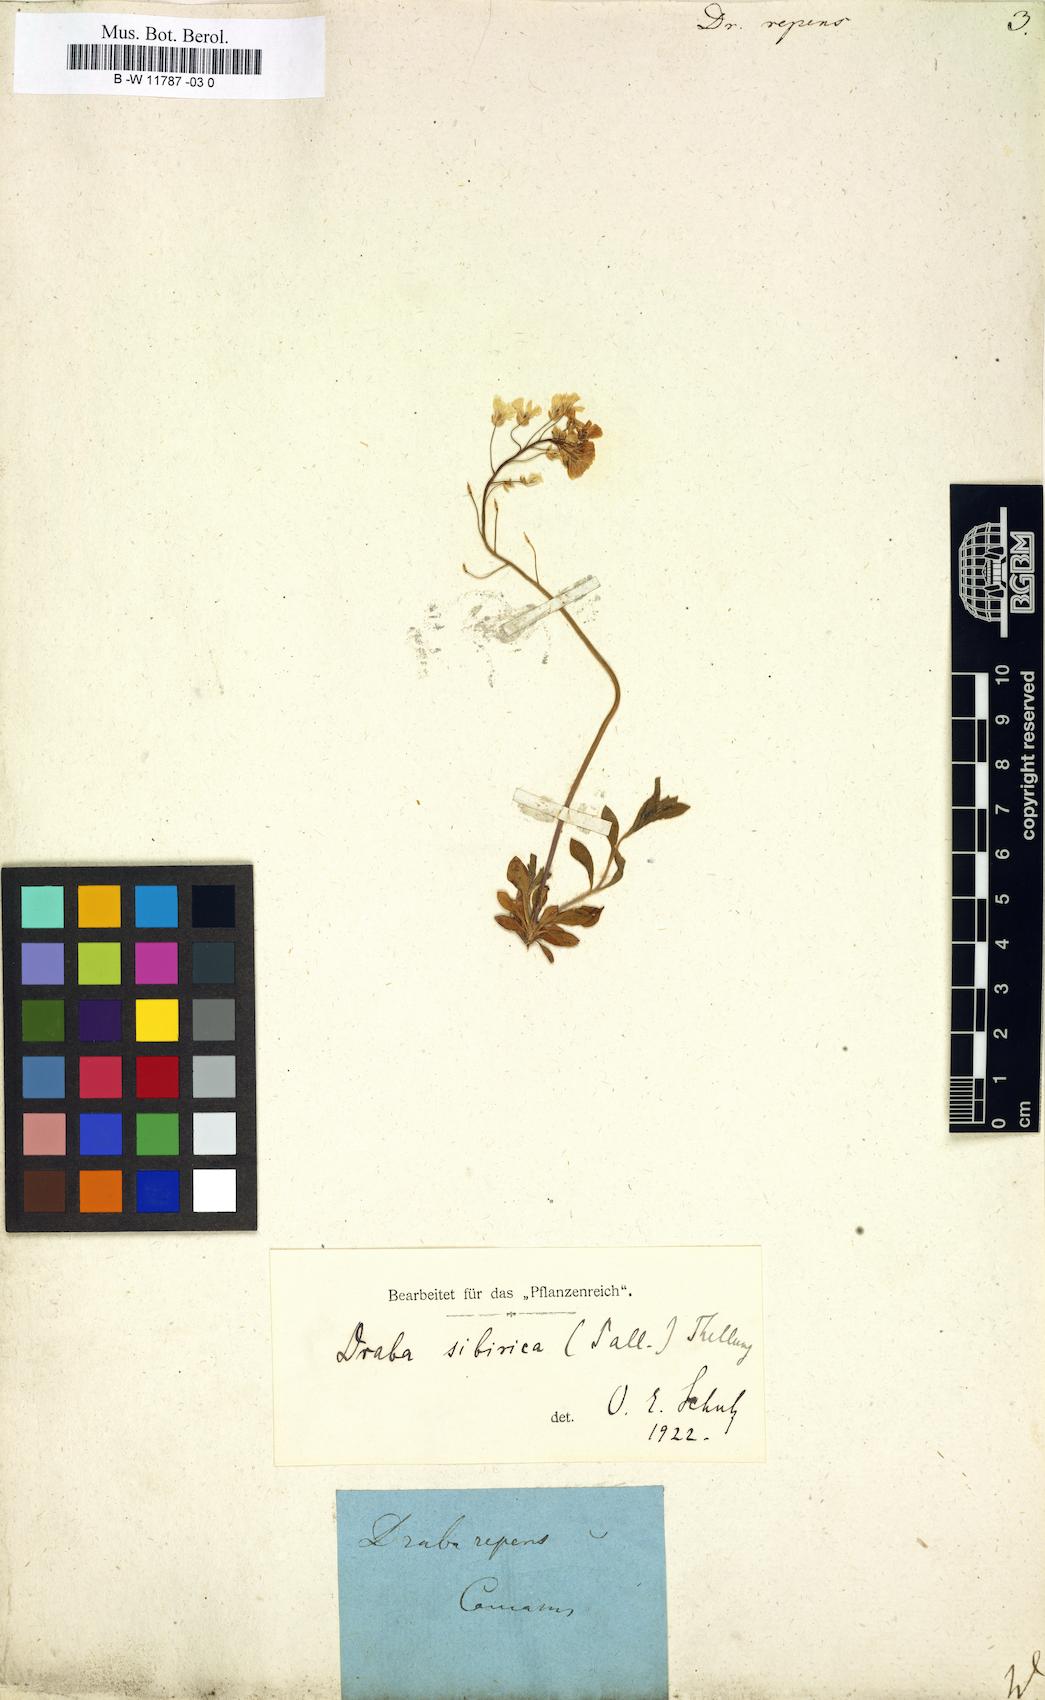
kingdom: Plantae
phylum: Tracheophyta
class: Magnoliopsida
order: Brassicales
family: Brassicaceae
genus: Draba
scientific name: Draba sibirica
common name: Siberian draba
